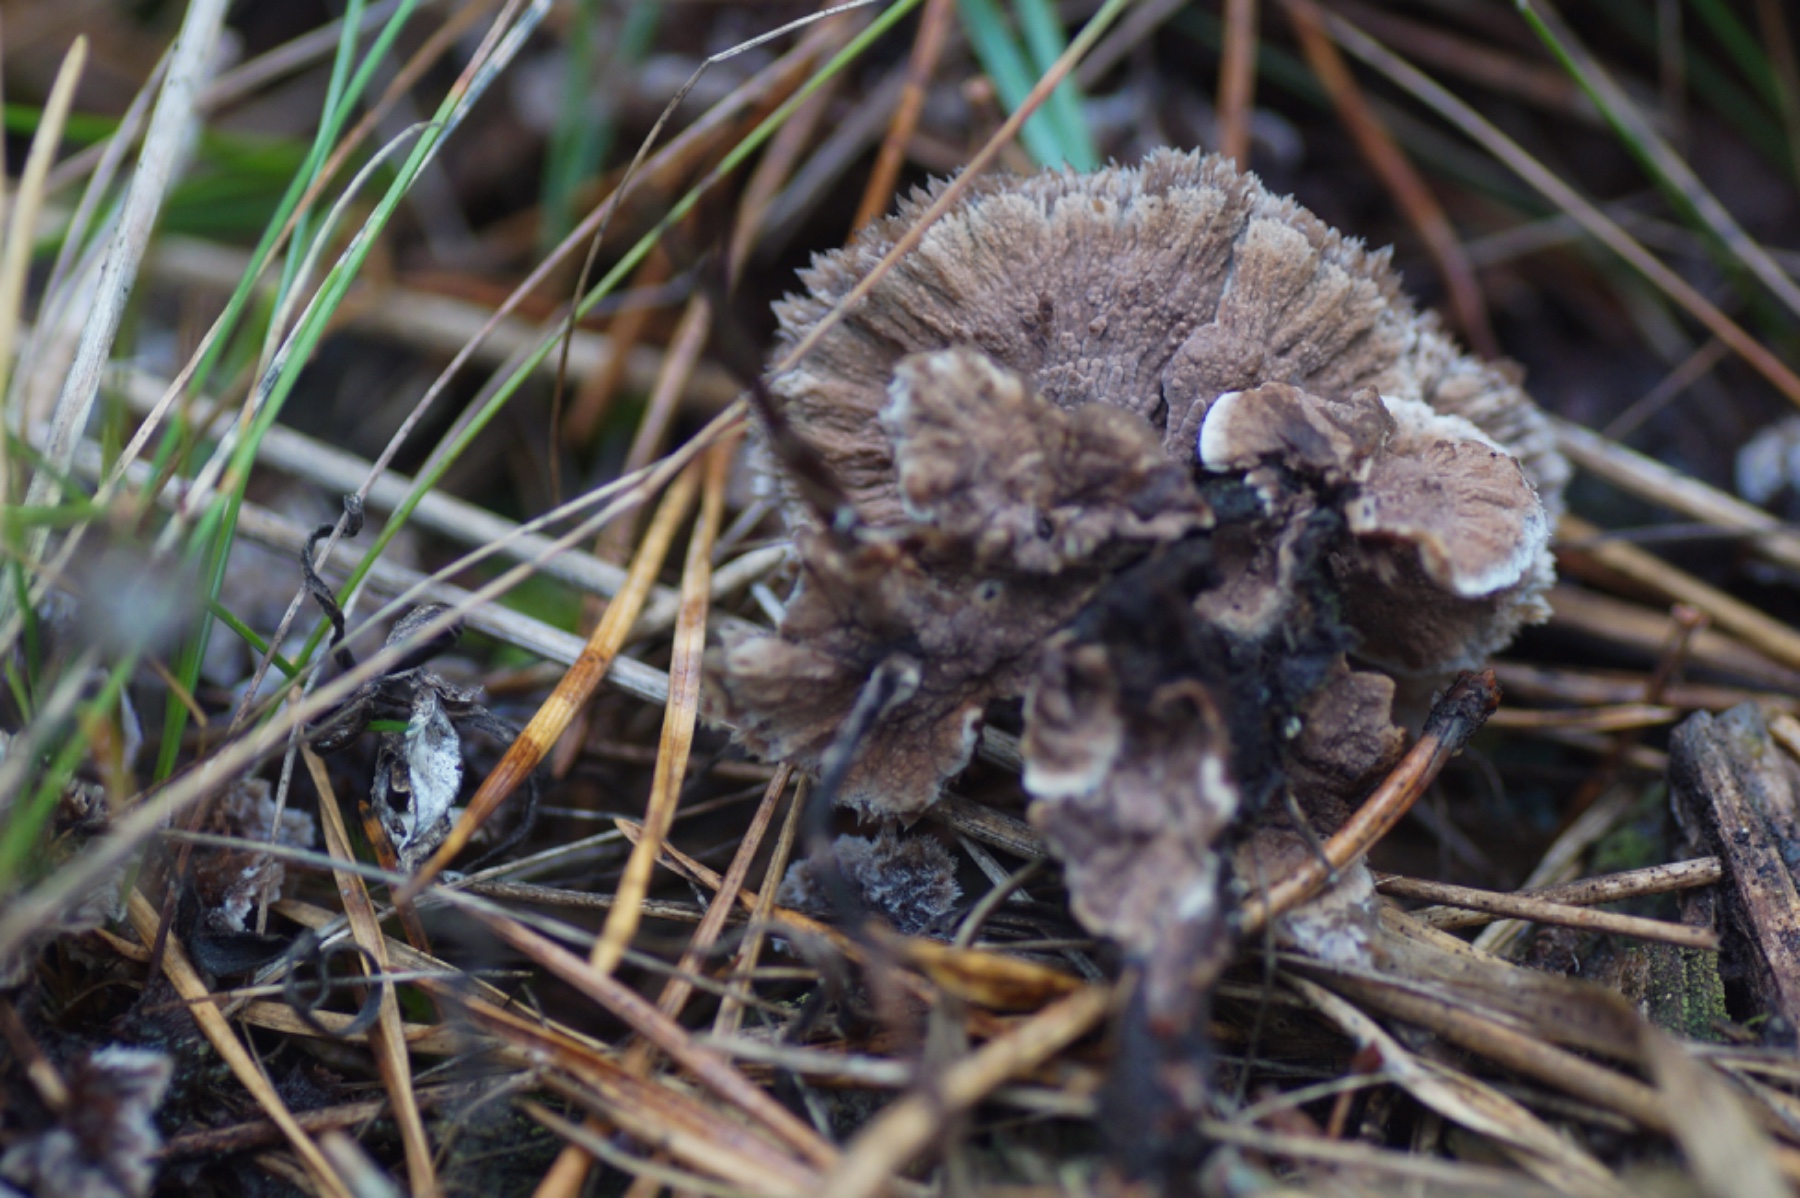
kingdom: Fungi
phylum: Basidiomycota
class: Agaricomycetes
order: Thelephorales
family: Thelephoraceae
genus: Thelephora
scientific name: Thelephora terrestris
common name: fliget frynsesvamp
